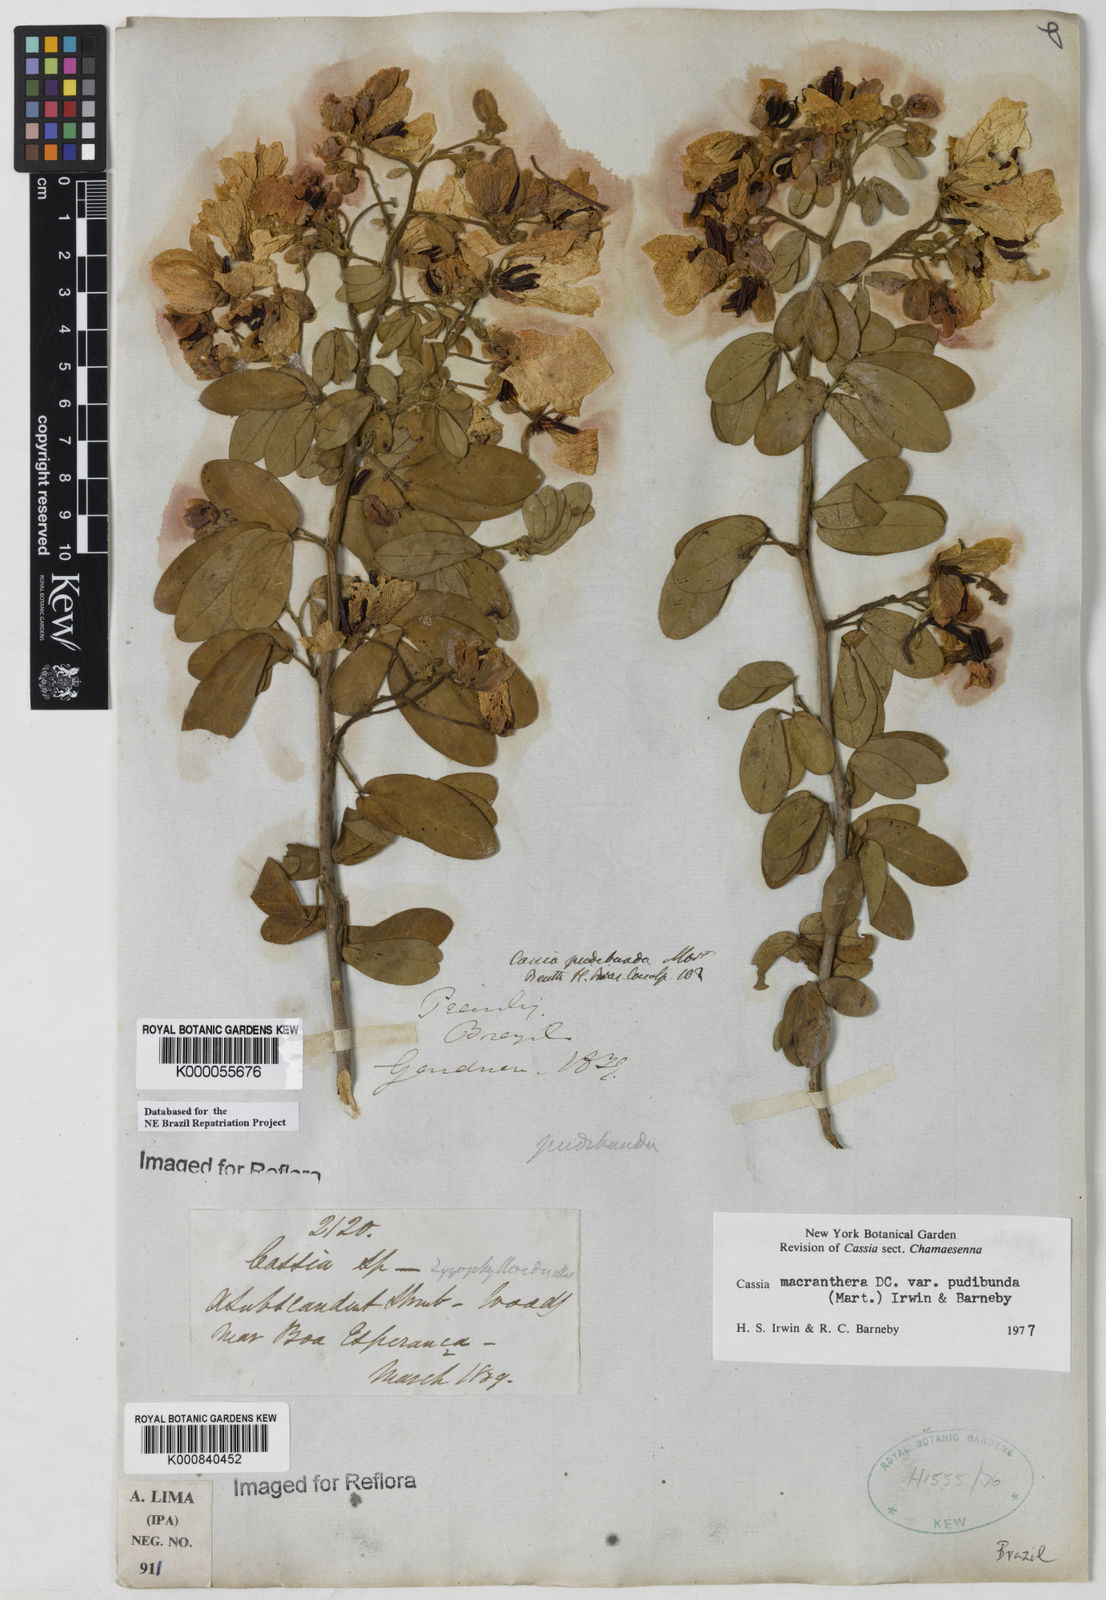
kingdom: Plantae
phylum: Tracheophyta
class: Magnoliopsida
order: Fabales
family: Fabaceae
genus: Senna
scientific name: Senna macranthera
